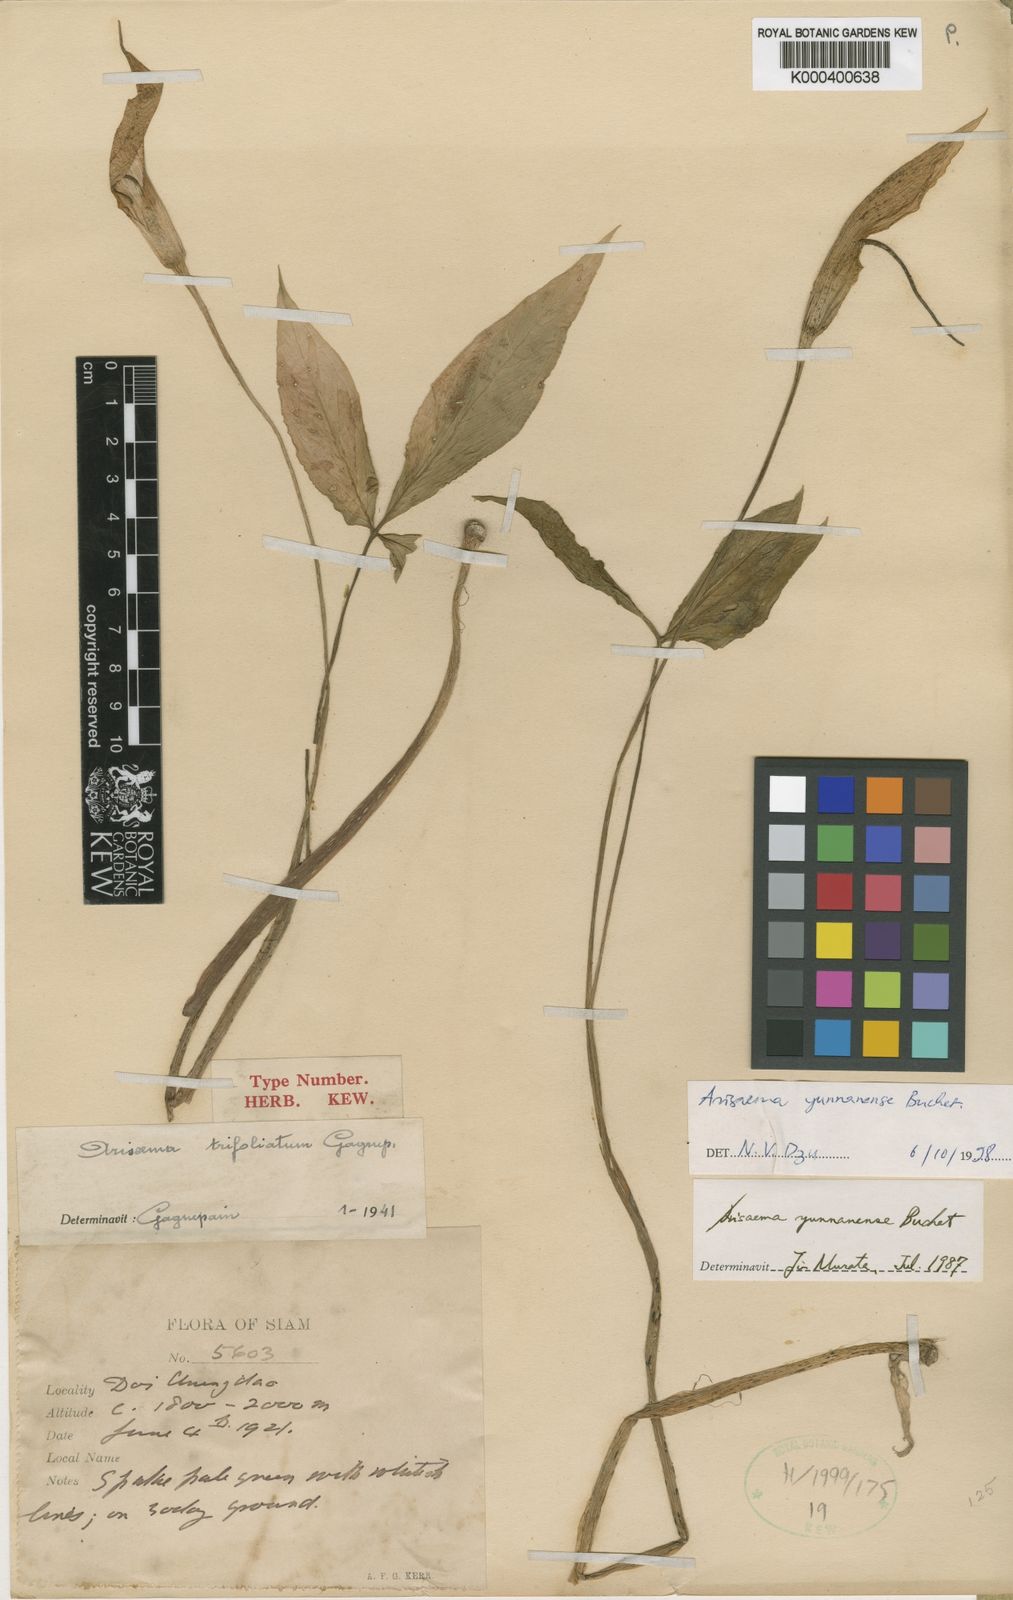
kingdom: Plantae
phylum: Tracheophyta
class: Liliopsida
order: Alismatales
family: Araceae
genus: Arisaema
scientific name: Arisaema yunnanense
